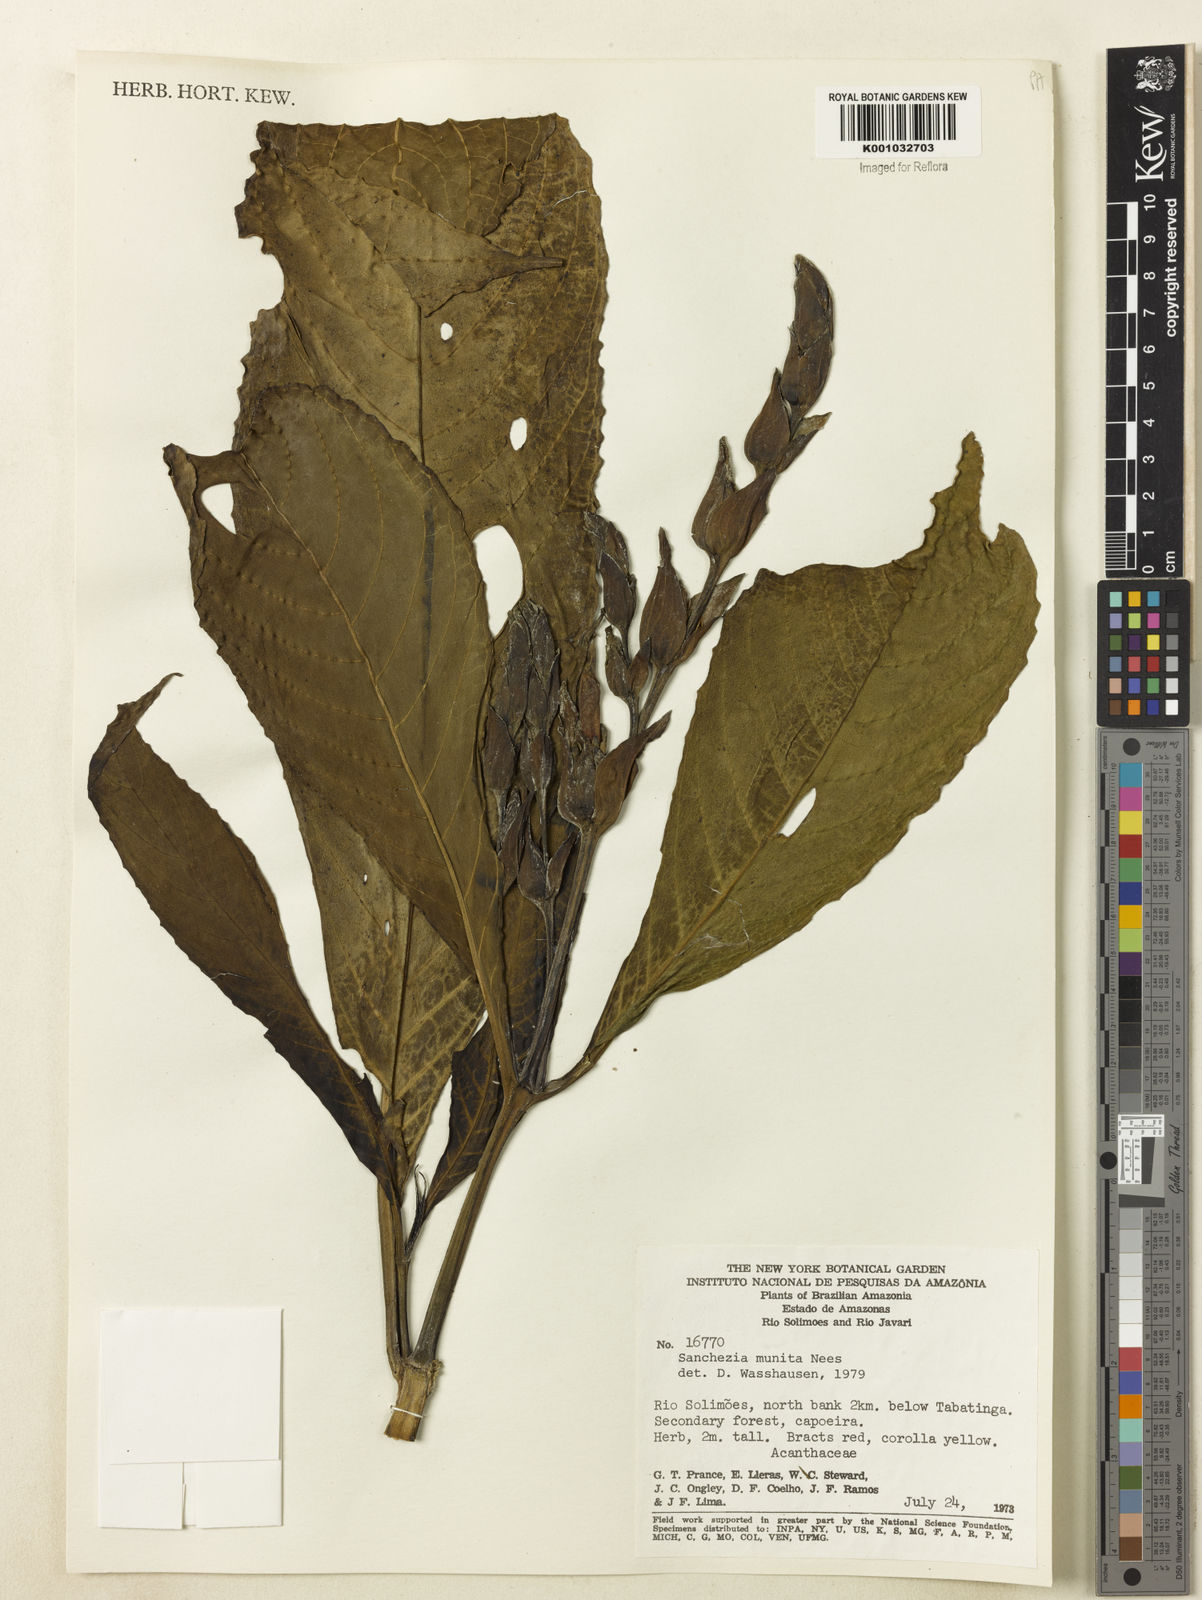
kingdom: Plantae
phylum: Tracheophyta
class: Magnoliopsida
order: Lamiales
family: Acanthaceae
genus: Sanchezia
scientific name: Sanchezia munita
